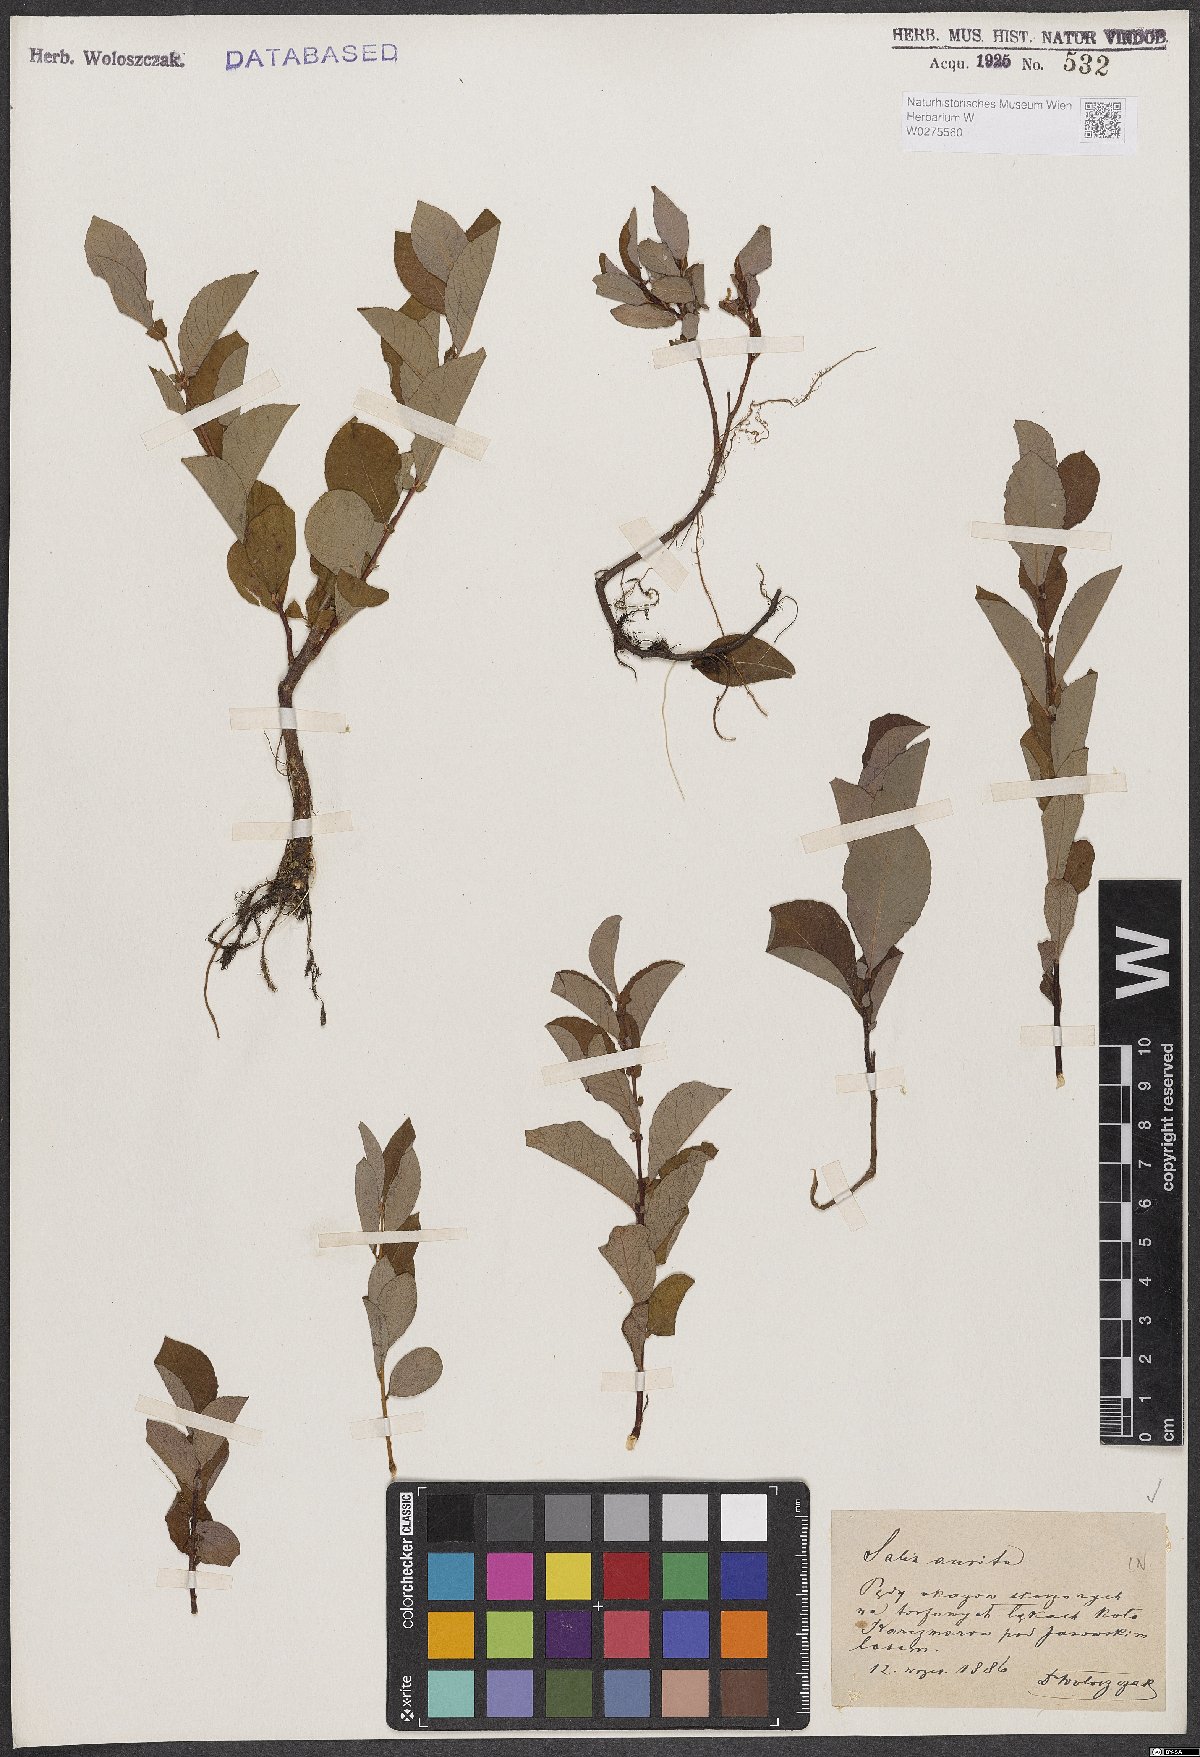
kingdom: Plantae
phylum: Tracheophyta
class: Magnoliopsida
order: Malpighiales
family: Salicaceae
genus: Salix
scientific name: Salix aurita
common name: Eared willow
